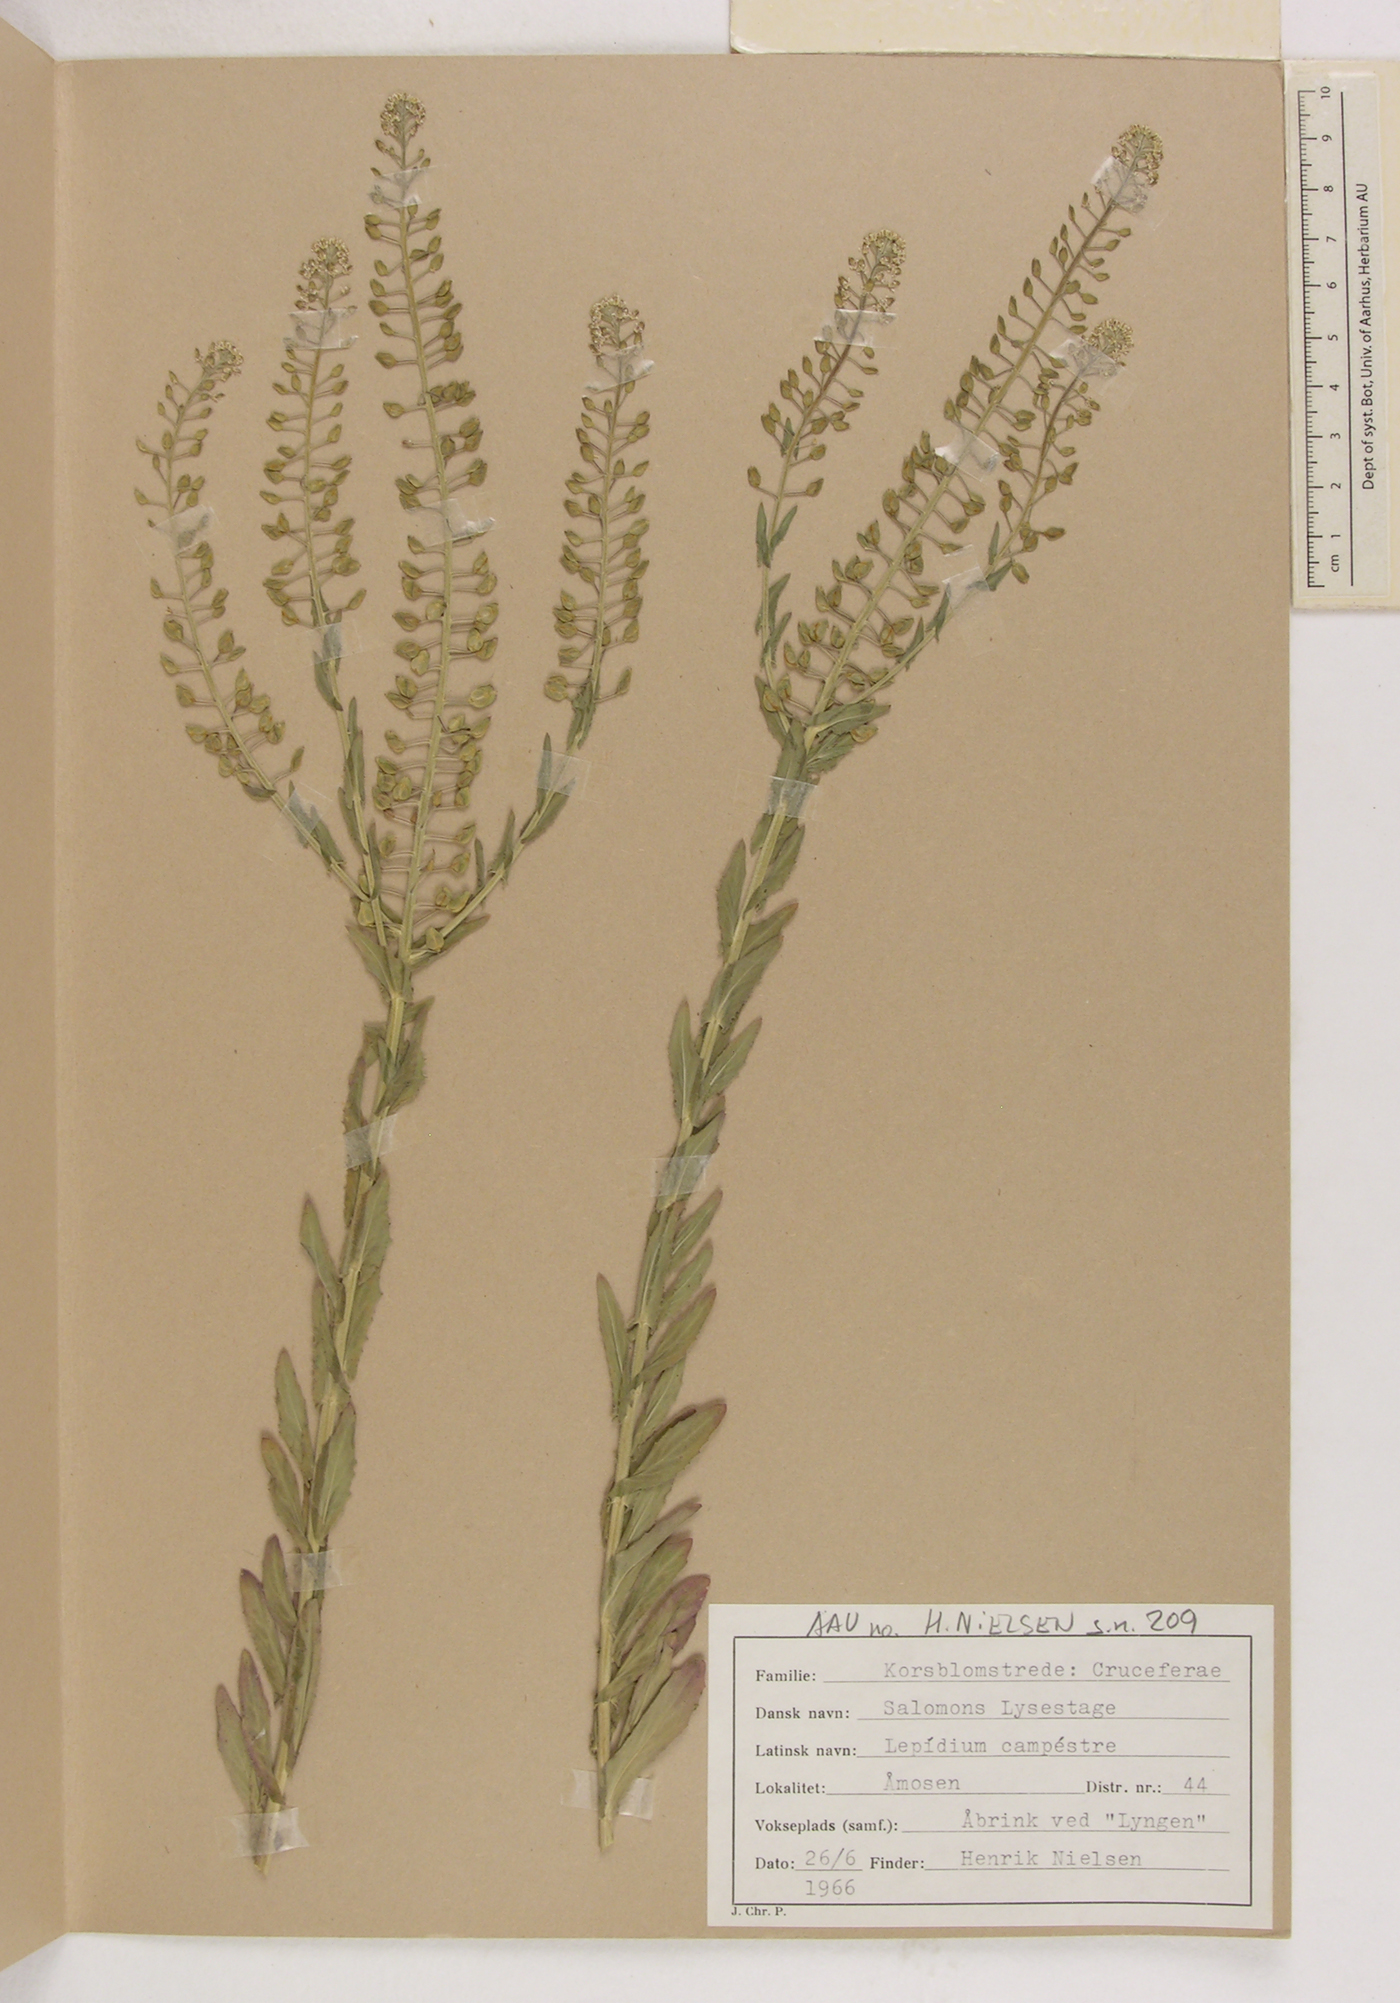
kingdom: Plantae
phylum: Tracheophyta
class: Magnoliopsida
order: Brassicales
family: Brassicaceae
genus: Lepidium
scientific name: Lepidium campestre
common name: Field pepperwort
